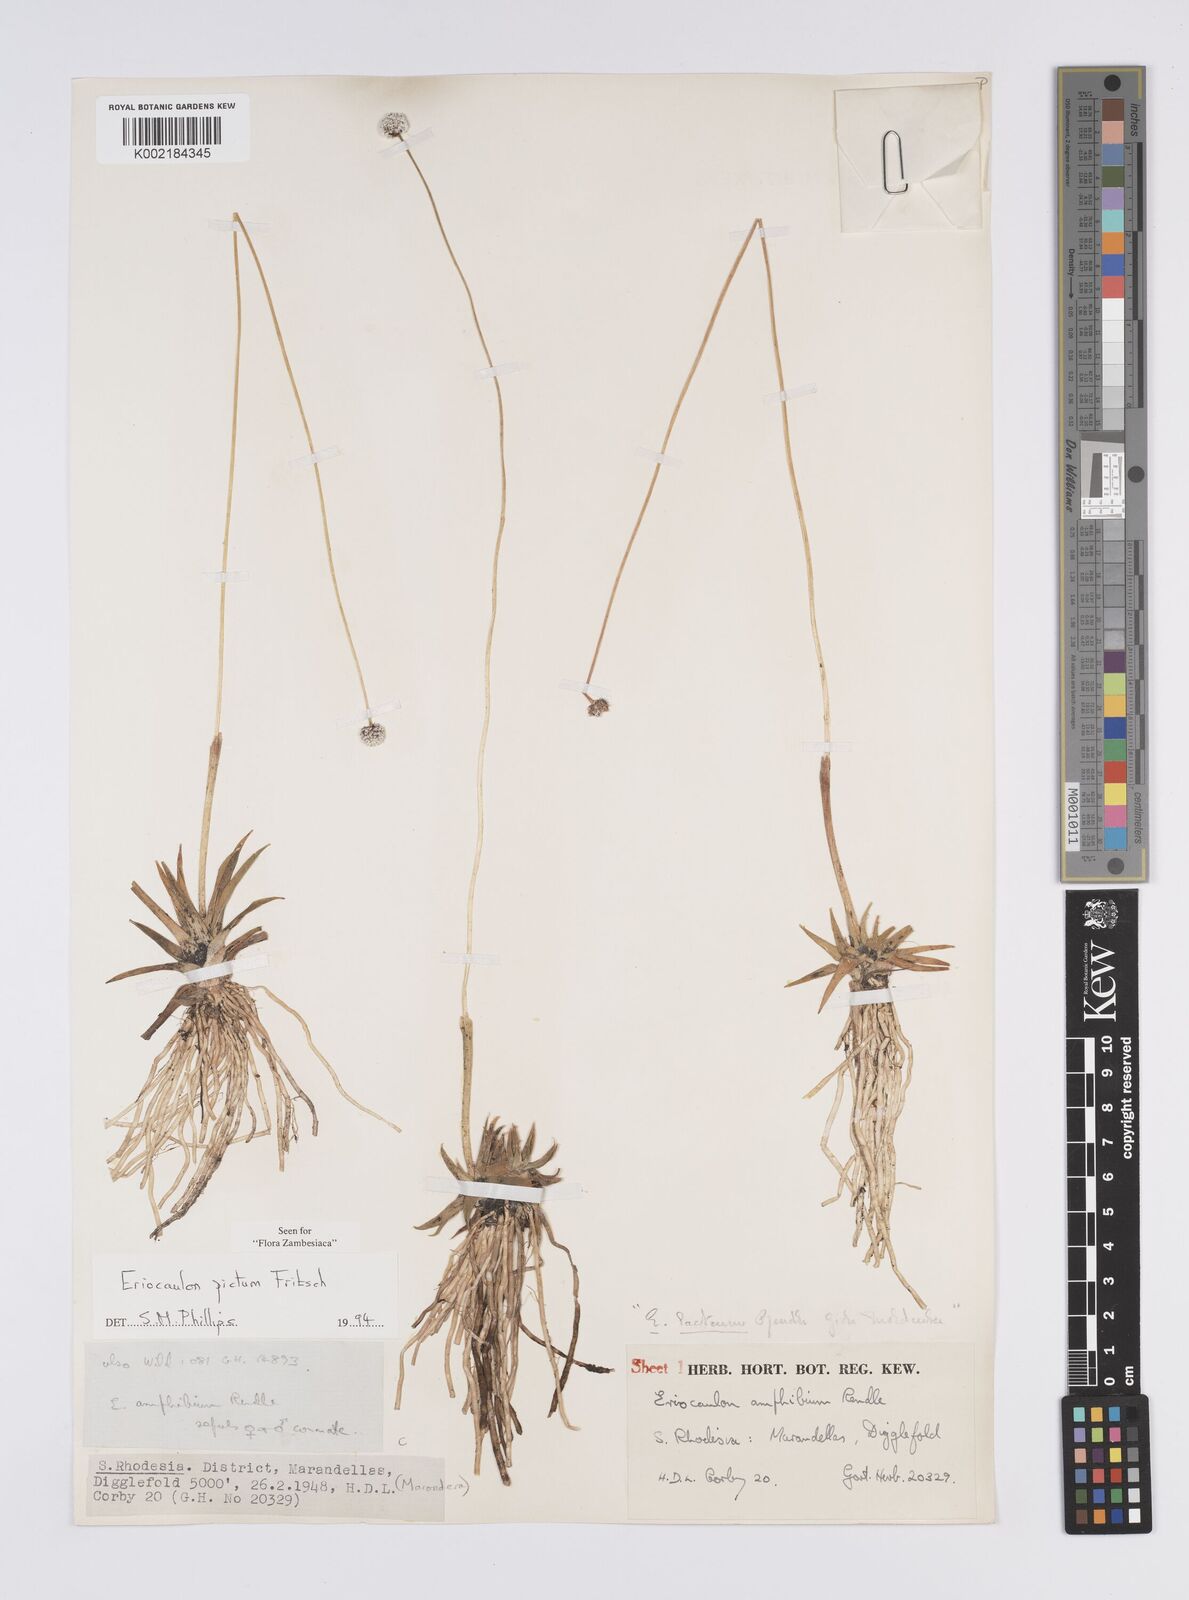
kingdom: Plantae
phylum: Tracheophyta
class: Liliopsida
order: Poales
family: Eriocaulaceae
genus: Eriocaulon
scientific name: Eriocaulon pictum
